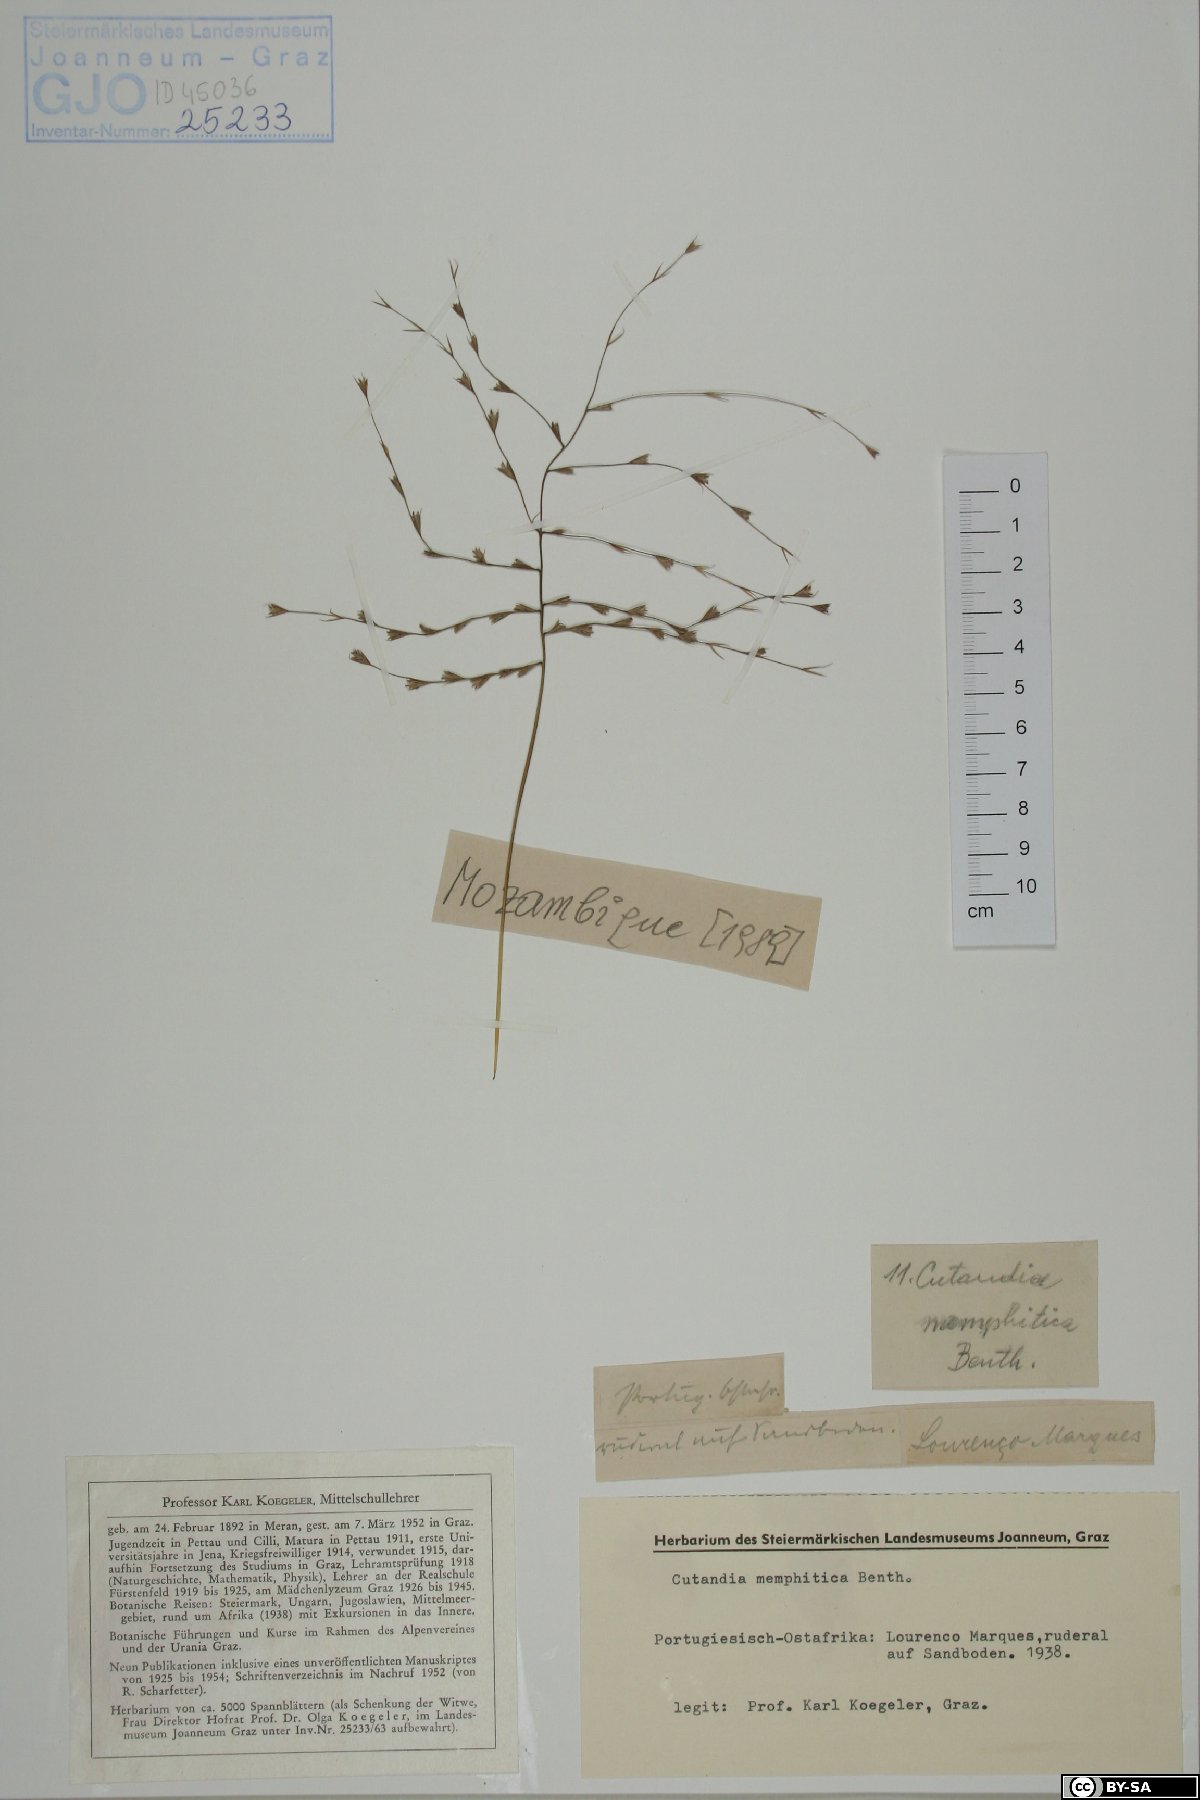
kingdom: Plantae
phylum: Tracheophyta
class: Liliopsida
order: Poales
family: Poaceae
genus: Cutandia
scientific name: Cutandia memphitica
